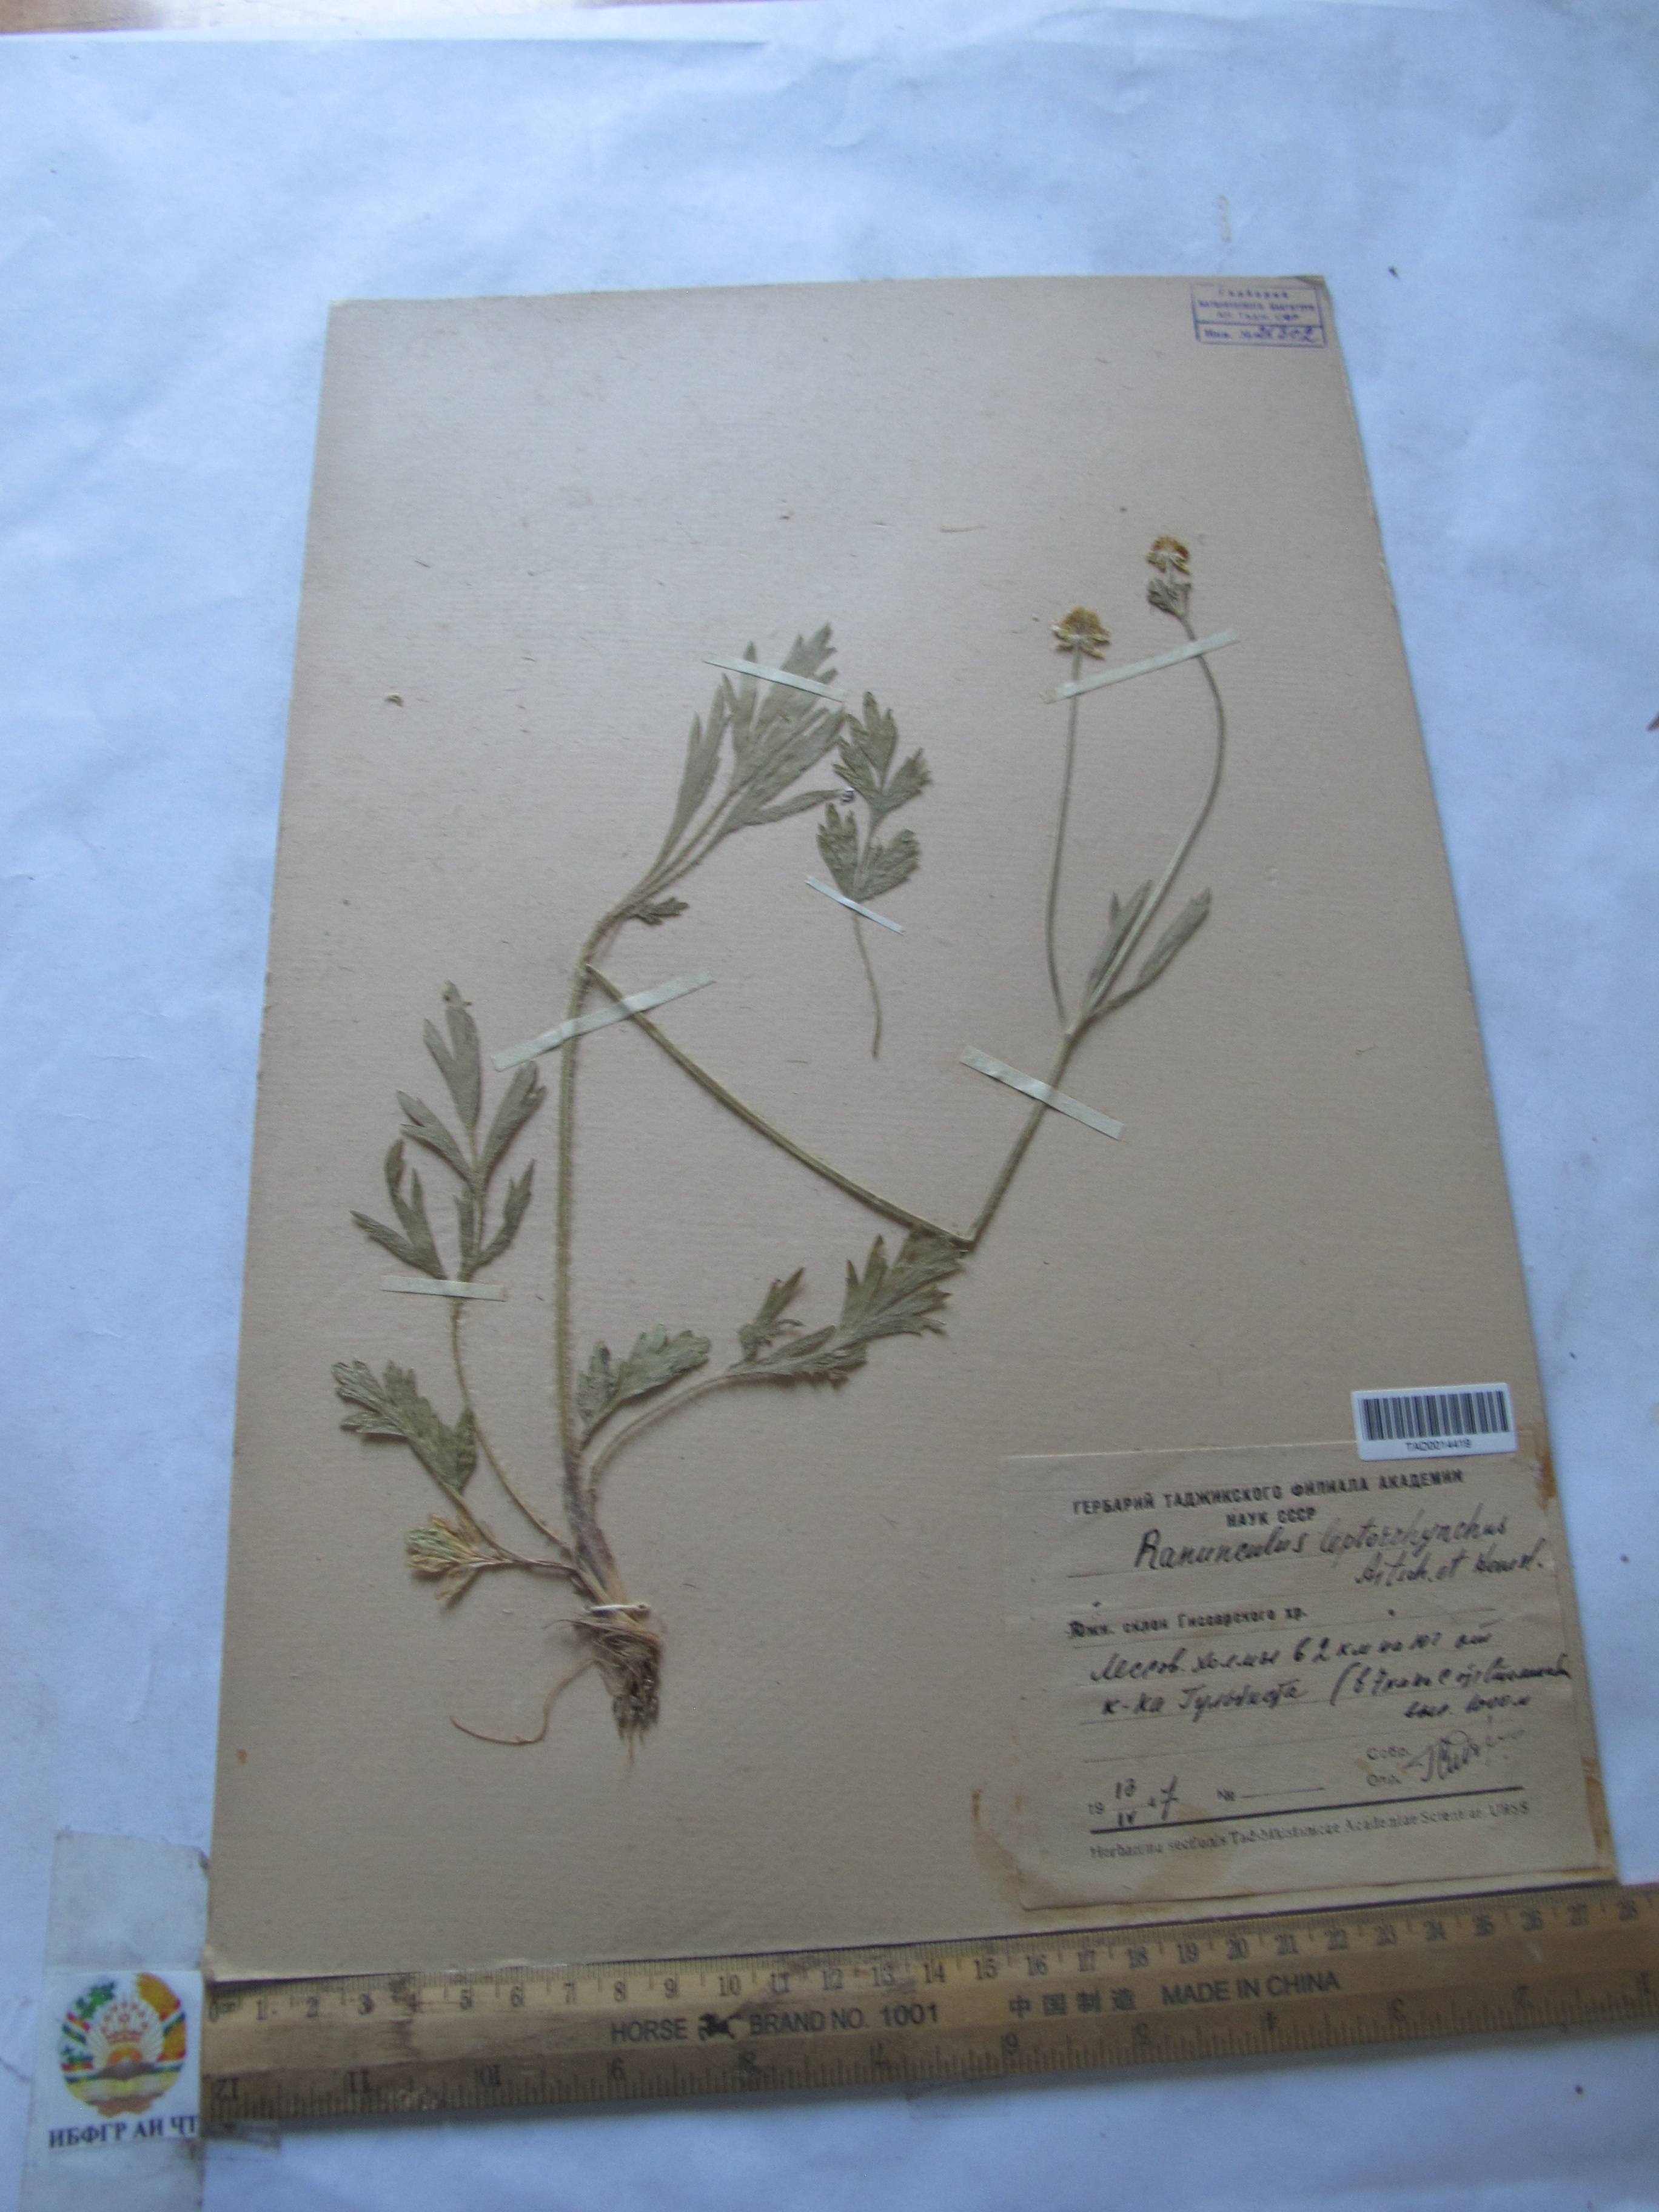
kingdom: Plantae
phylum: Tracheophyta
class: Magnoliopsida
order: Ranunculales
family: Ranunculaceae
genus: Ranunculus
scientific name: Ranunculus leptorrhynchus
